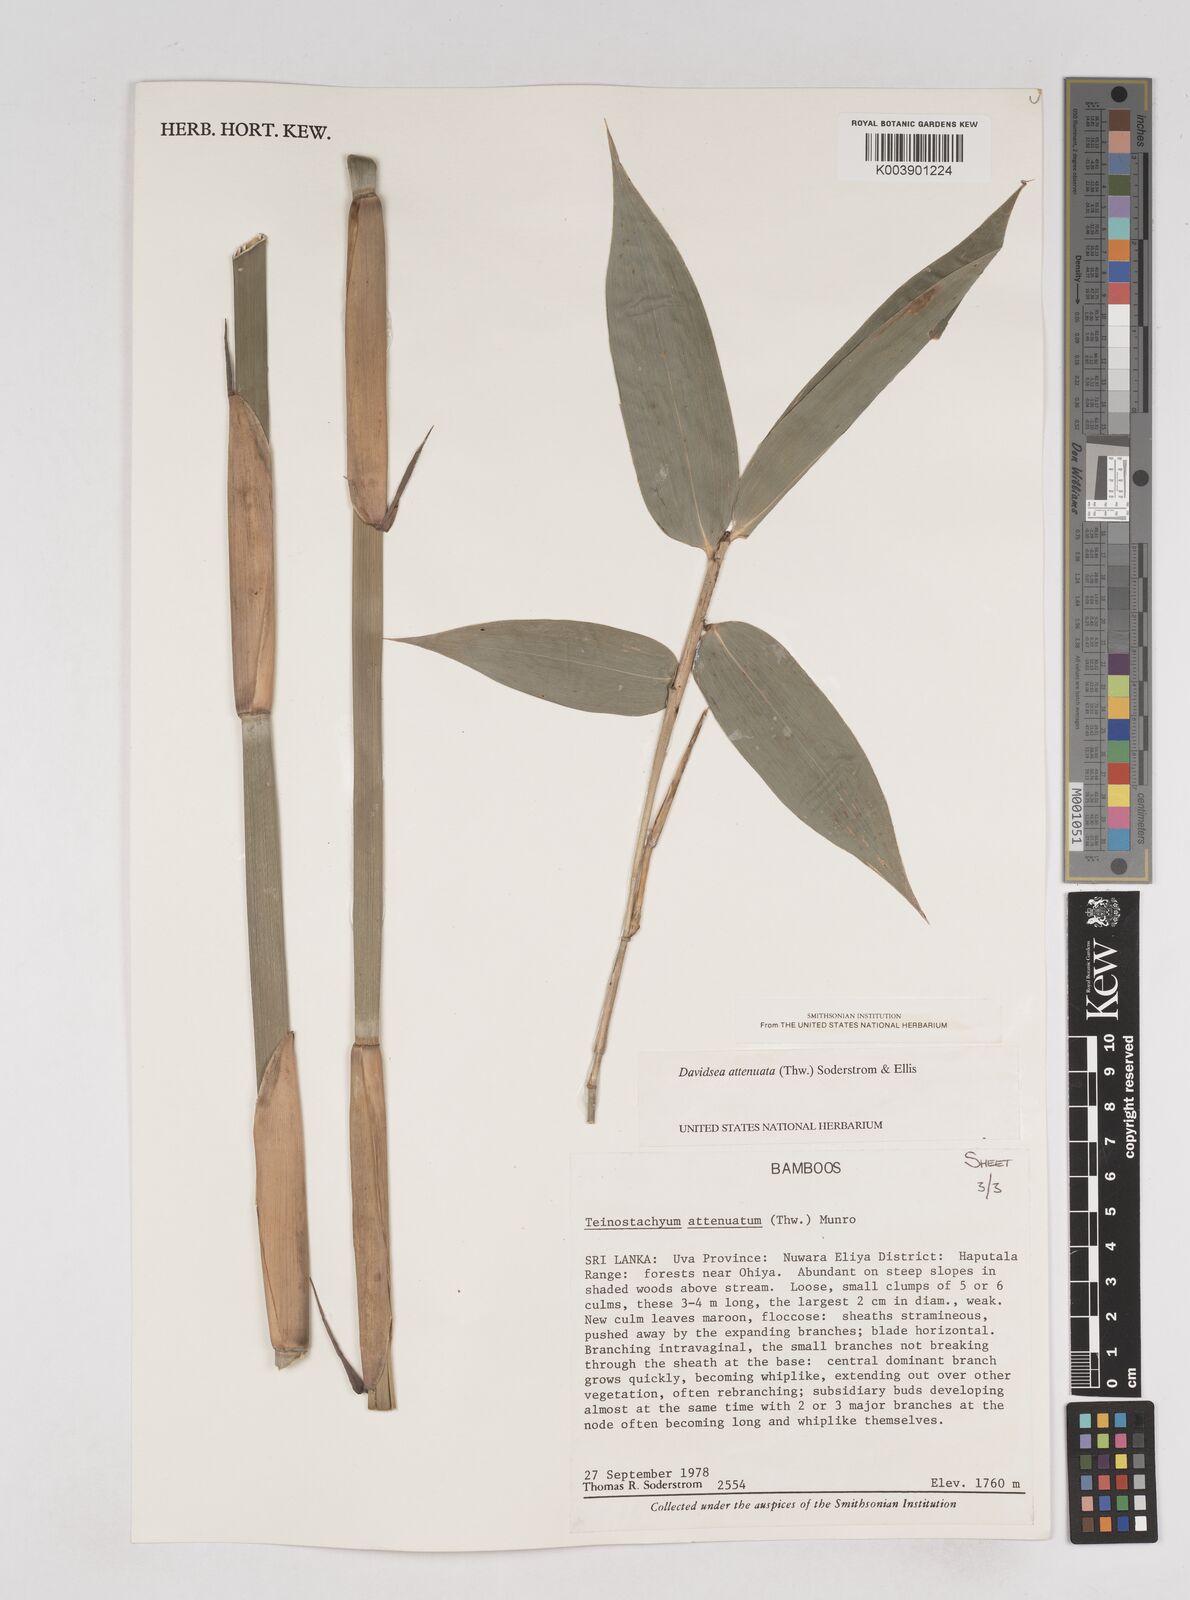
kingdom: Plantae
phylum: Tracheophyta
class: Liliopsida
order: Poales
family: Poaceae
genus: Davidsea
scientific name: Davidsea
